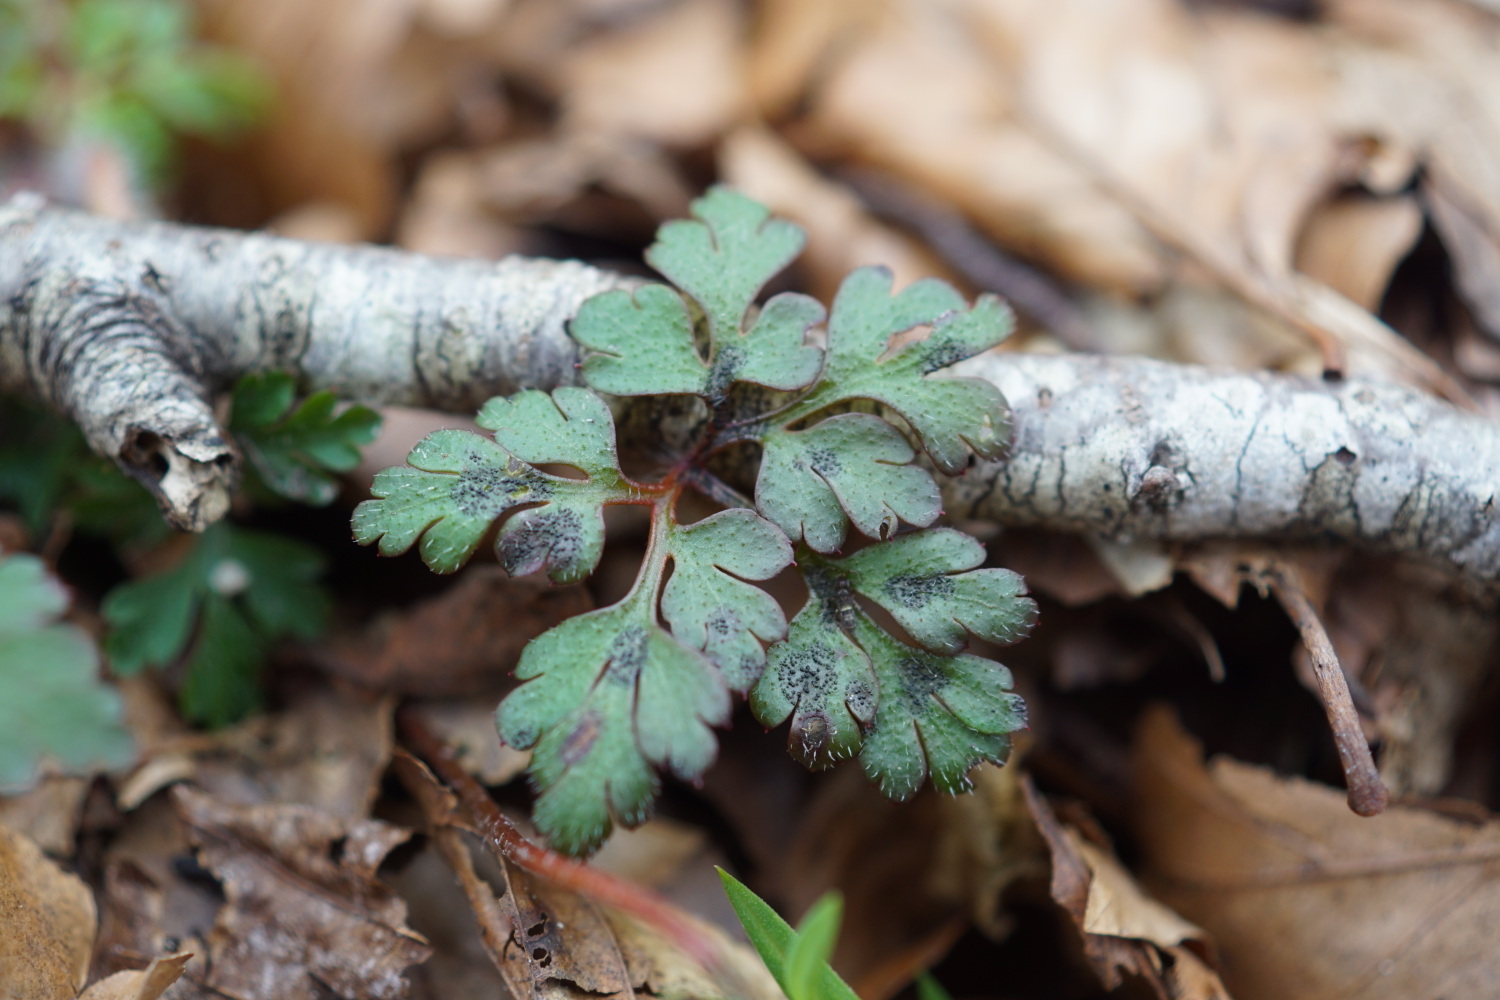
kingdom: Fungi
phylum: Ascomycota
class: Dothideomycetes
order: Venturiales
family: Venturiaceae
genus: Coleroa
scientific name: Coleroa robertiani
